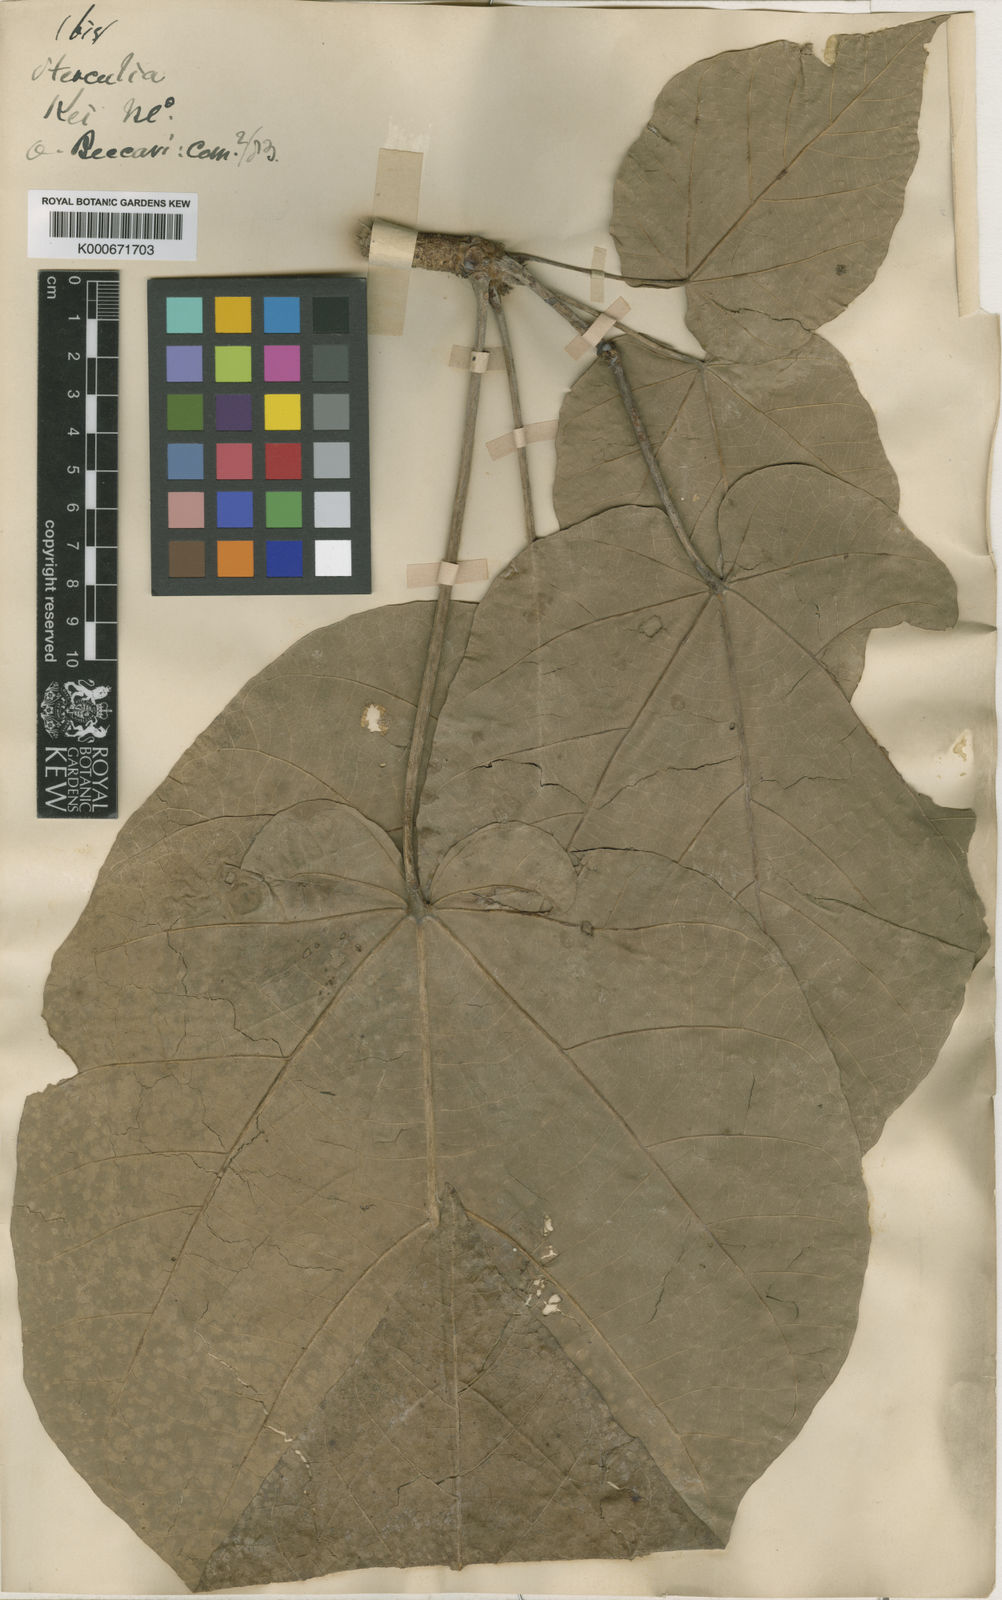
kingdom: Plantae
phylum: Tracheophyta
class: Magnoliopsida
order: Malvales
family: Malvaceae
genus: Sterculia
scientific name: Sterculia comosa
